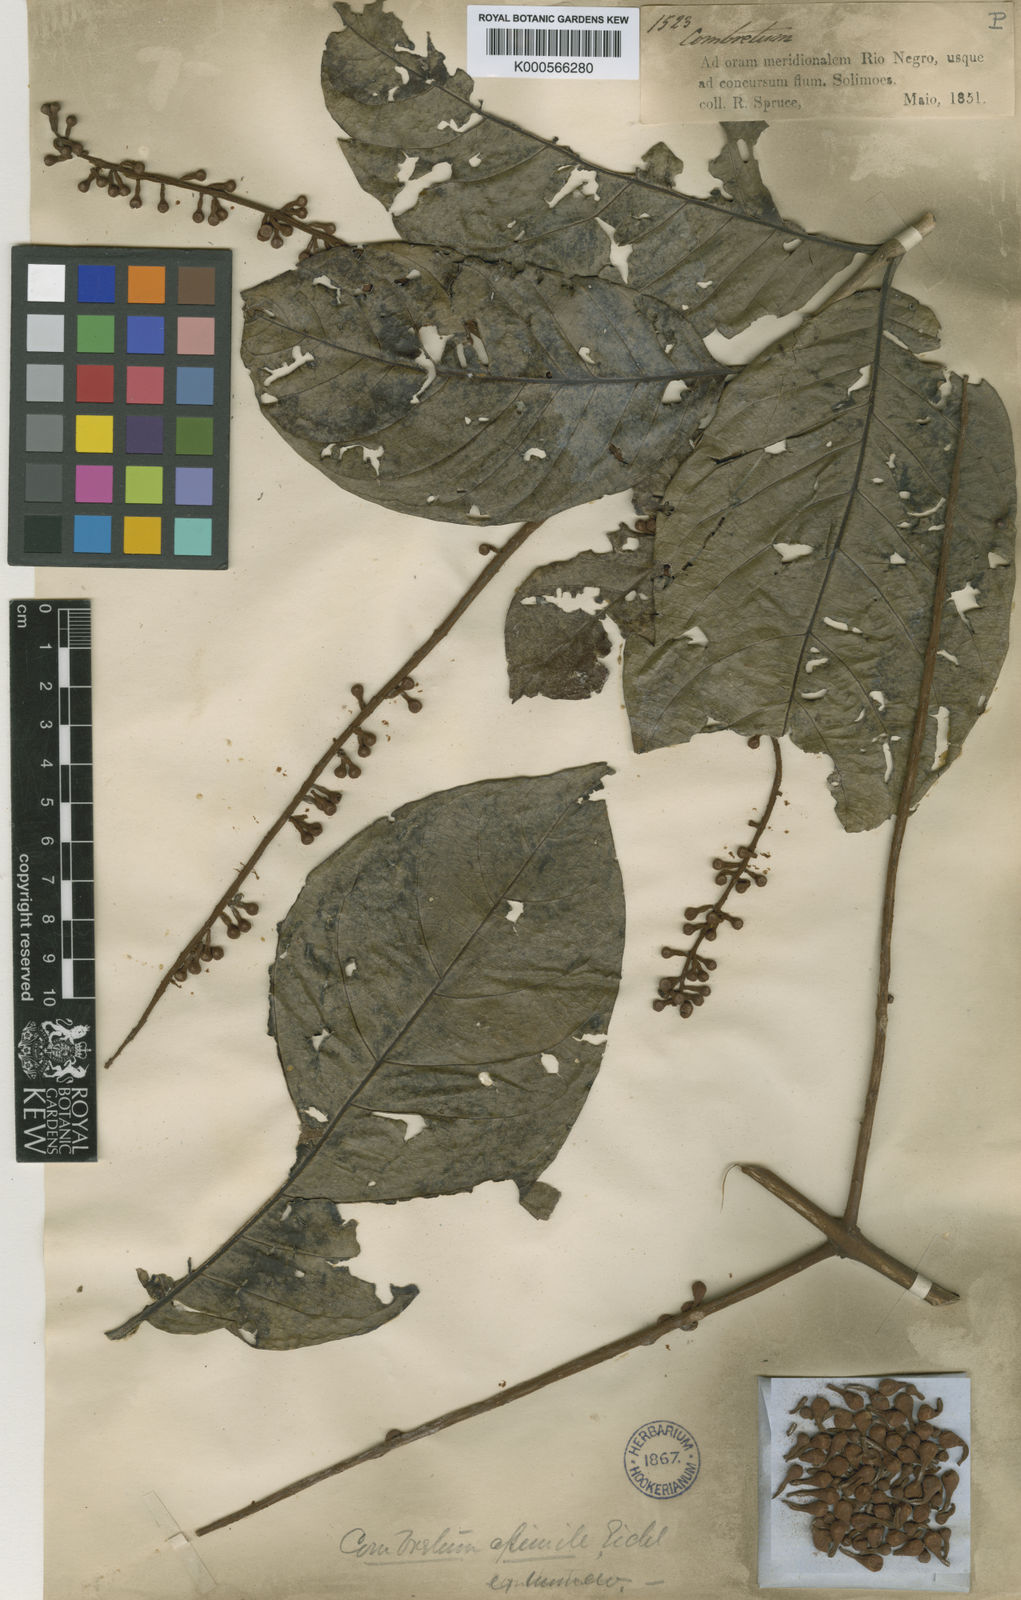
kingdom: Plantae
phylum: Tracheophyta
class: Magnoliopsida
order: Myrtales
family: Combretaceae
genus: Combretum
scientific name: Combretum assimile
